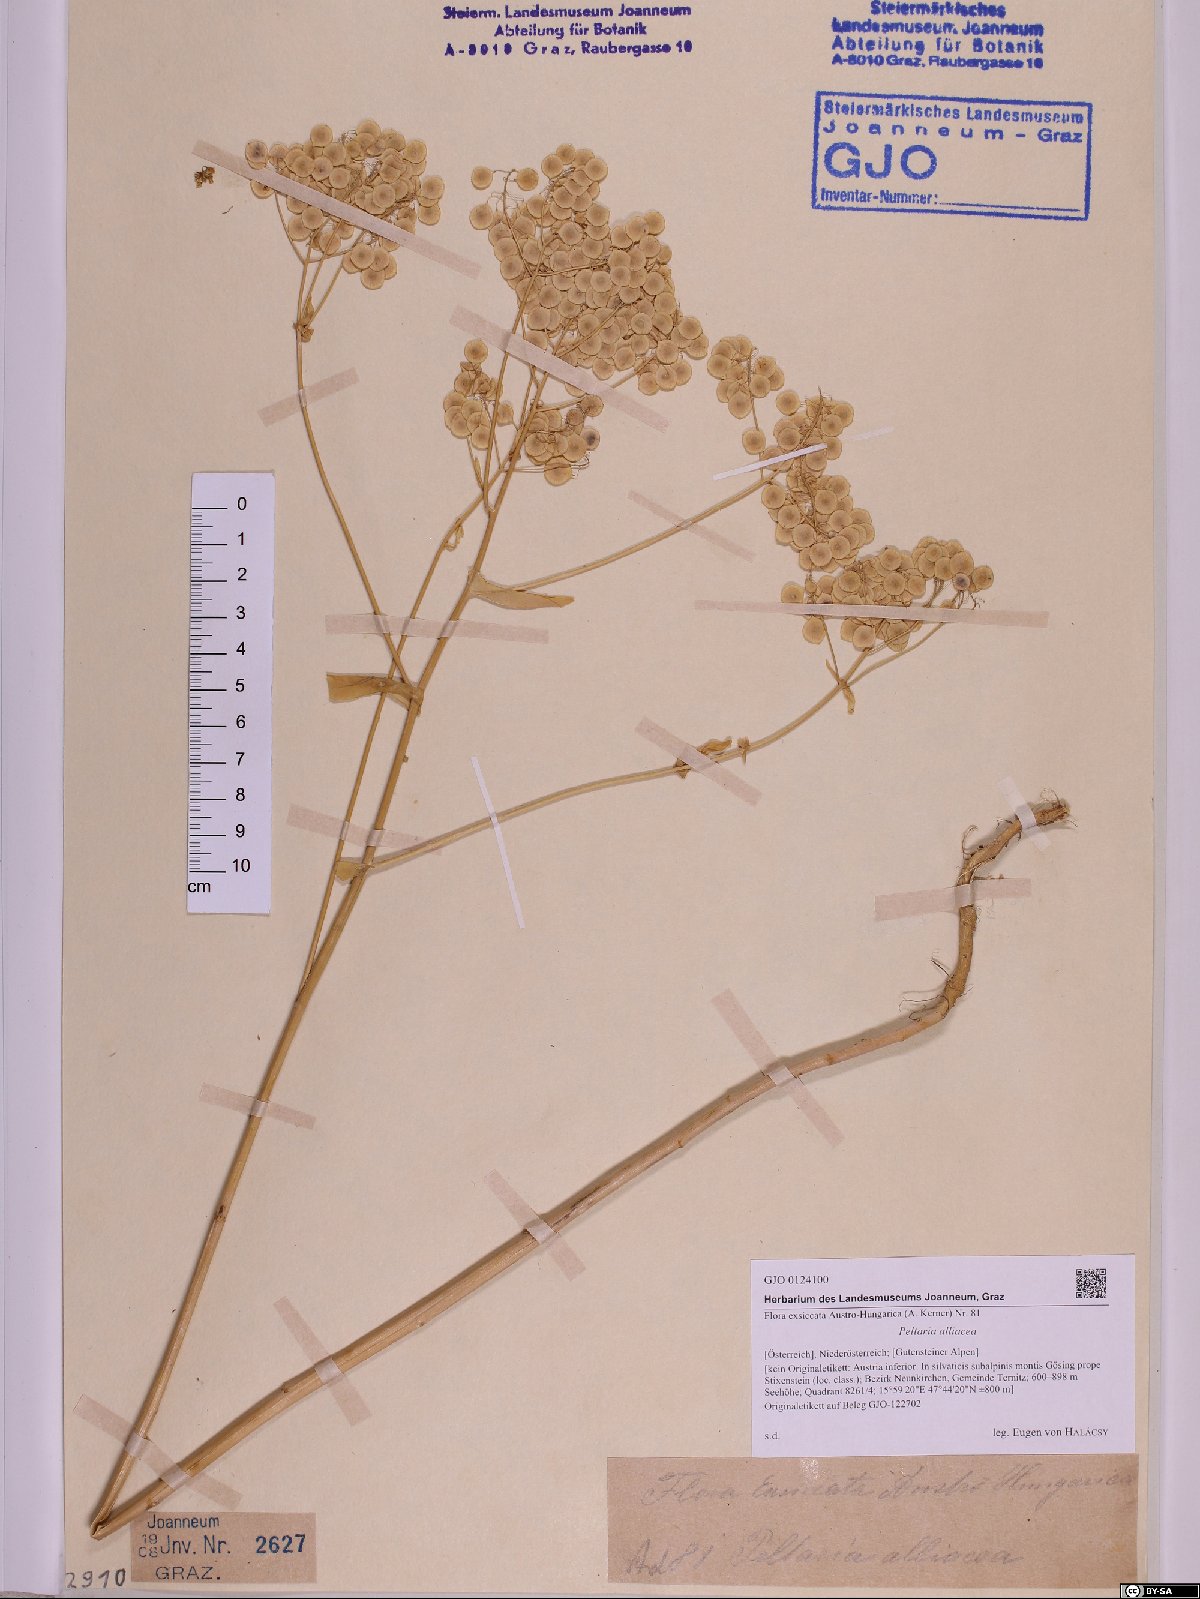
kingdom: Plantae
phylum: Tracheophyta
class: Magnoliopsida
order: Brassicales
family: Brassicaceae
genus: Peltaria
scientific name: Peltaria alliacea
